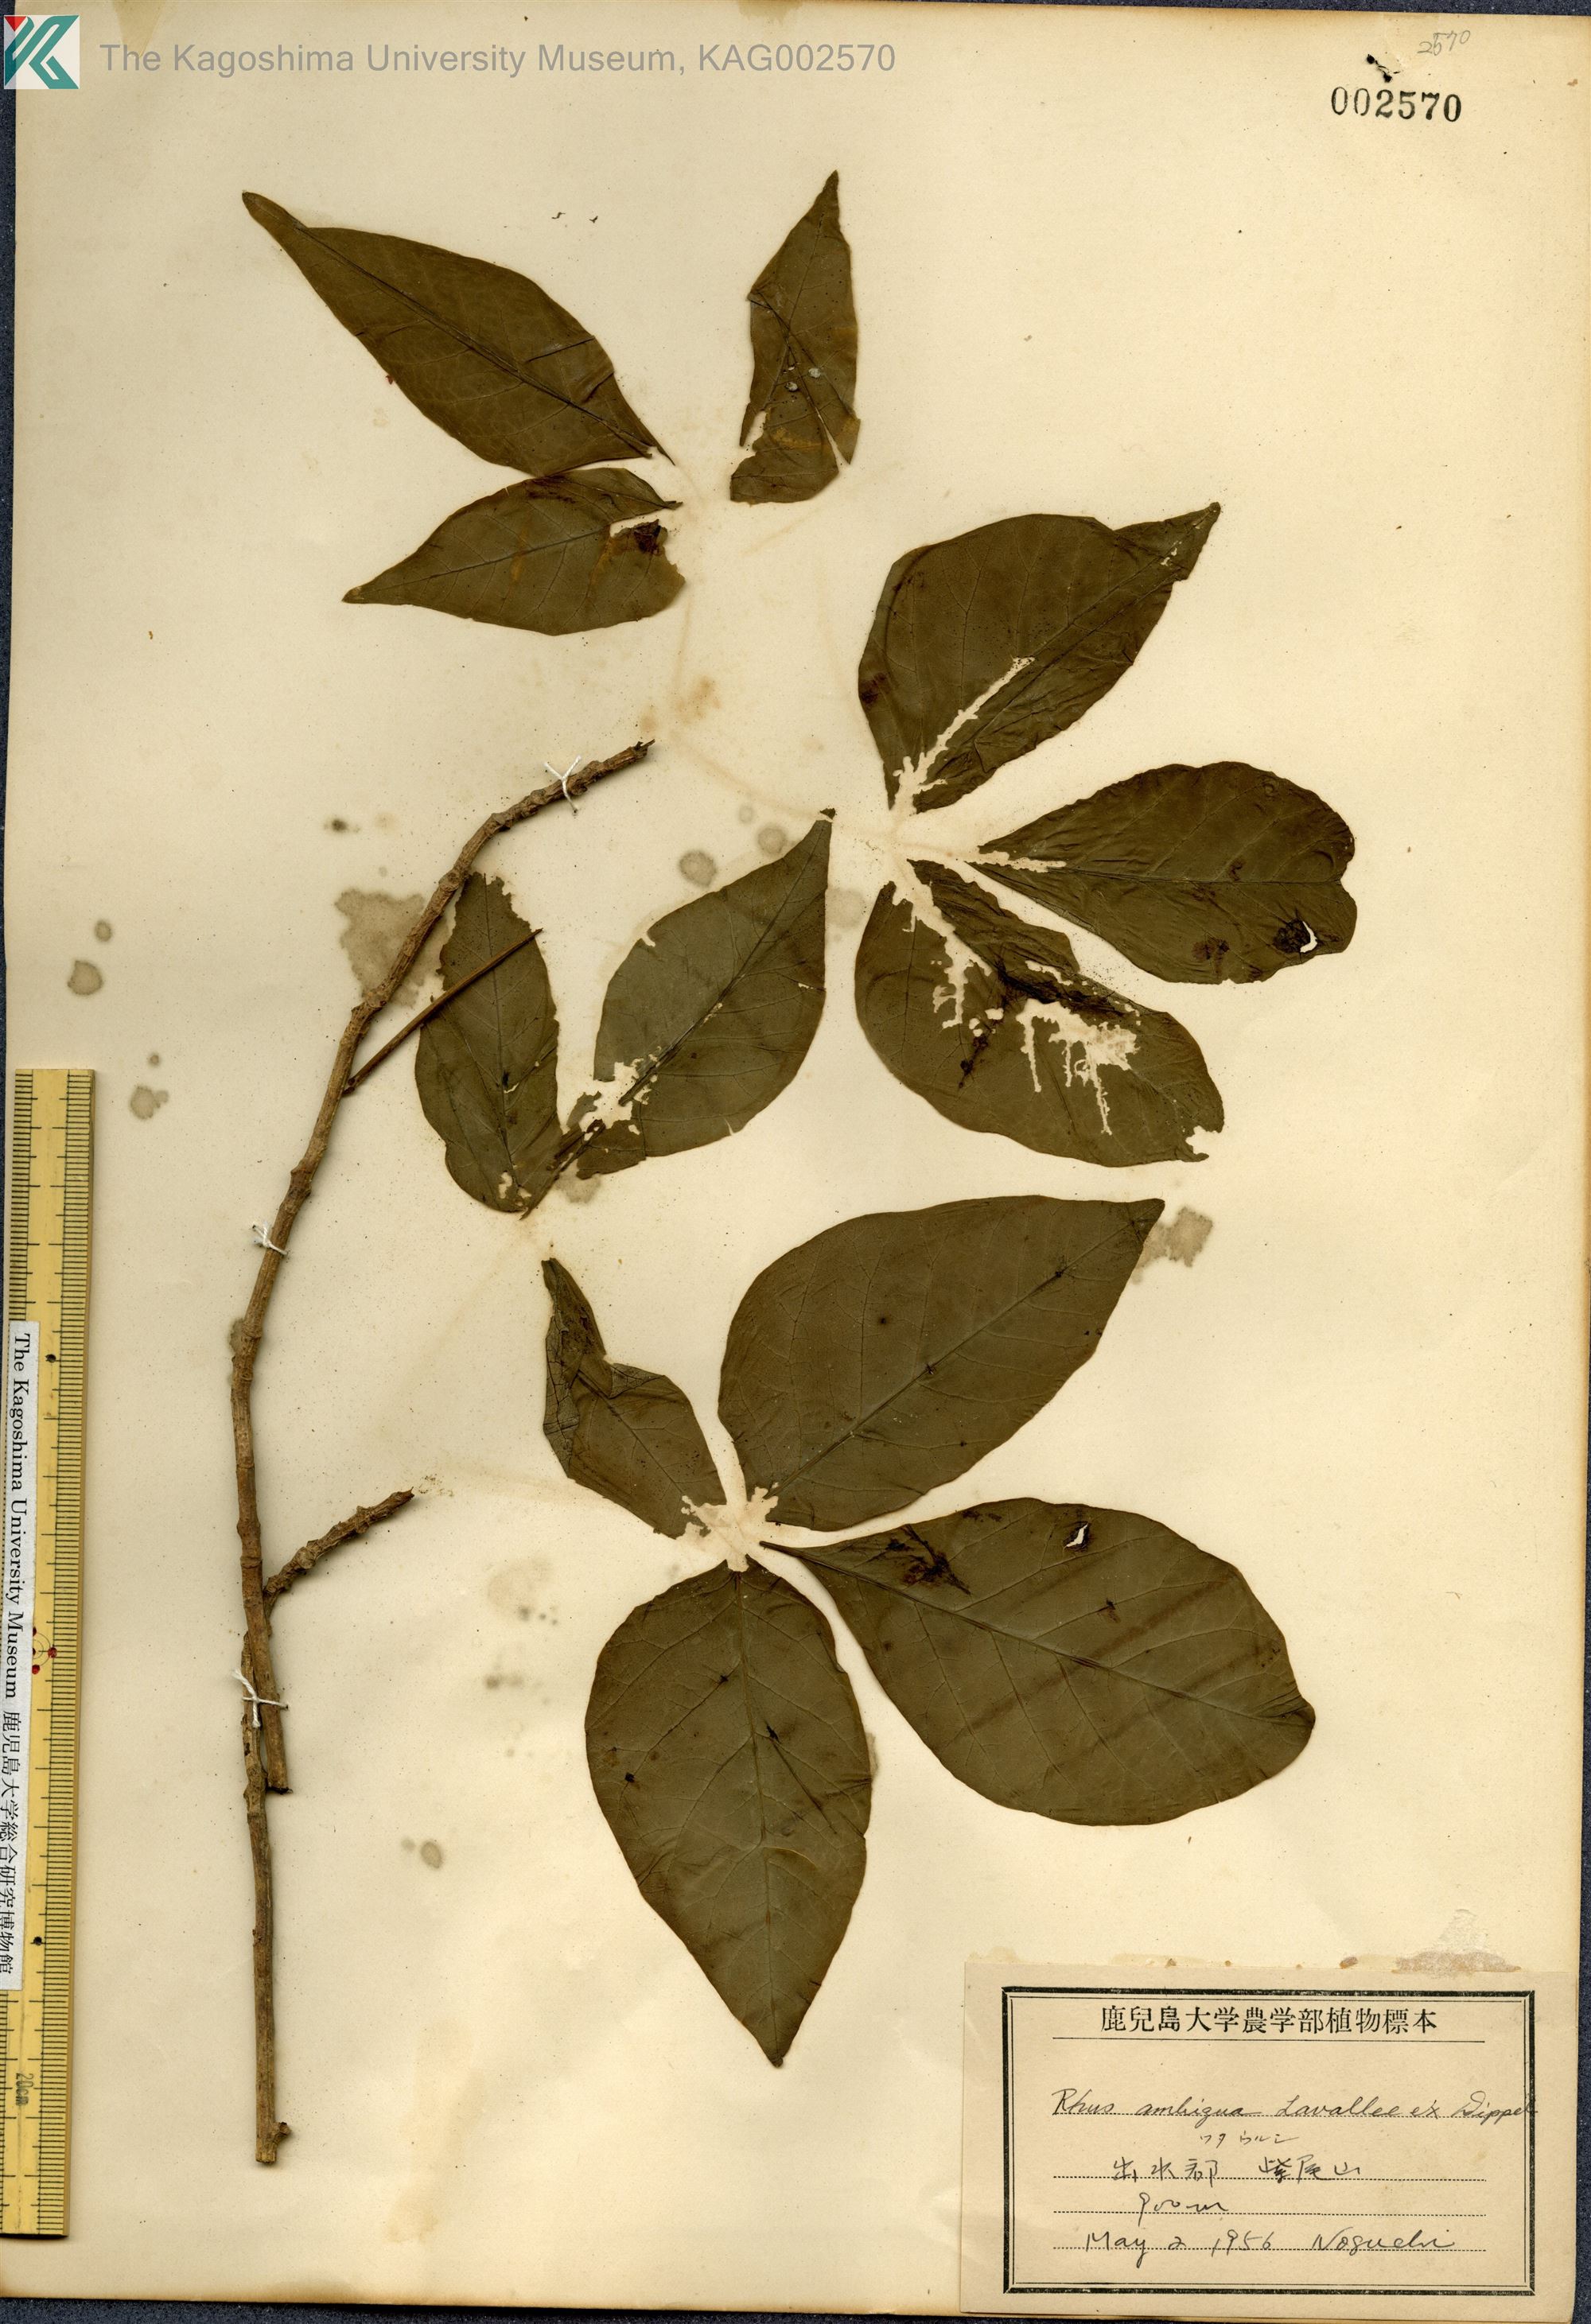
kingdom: Plantae
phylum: Tracheophyta
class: Magnoliopsida
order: Sapindales
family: Anacardiaceae
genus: Toxicodendron
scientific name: Toxicodendron orientale
